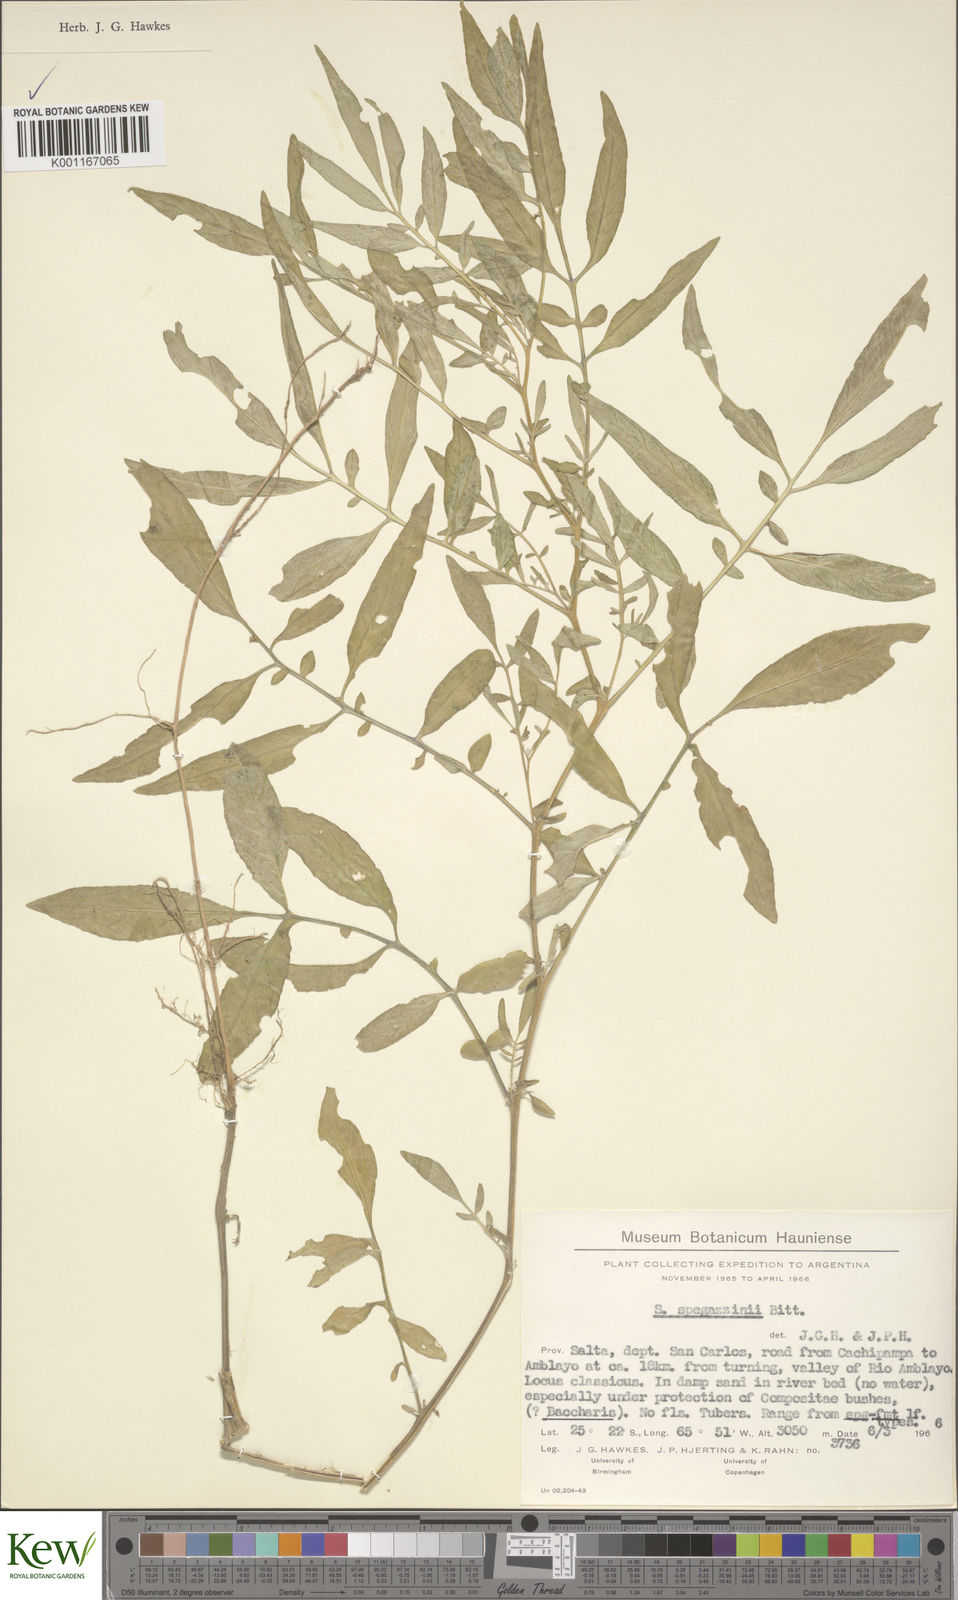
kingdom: Plantae
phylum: Tracheophyta
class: Magnoliopsida
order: Solanales
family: Solanaceae
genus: Solanum
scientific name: Solanum brevicaule
